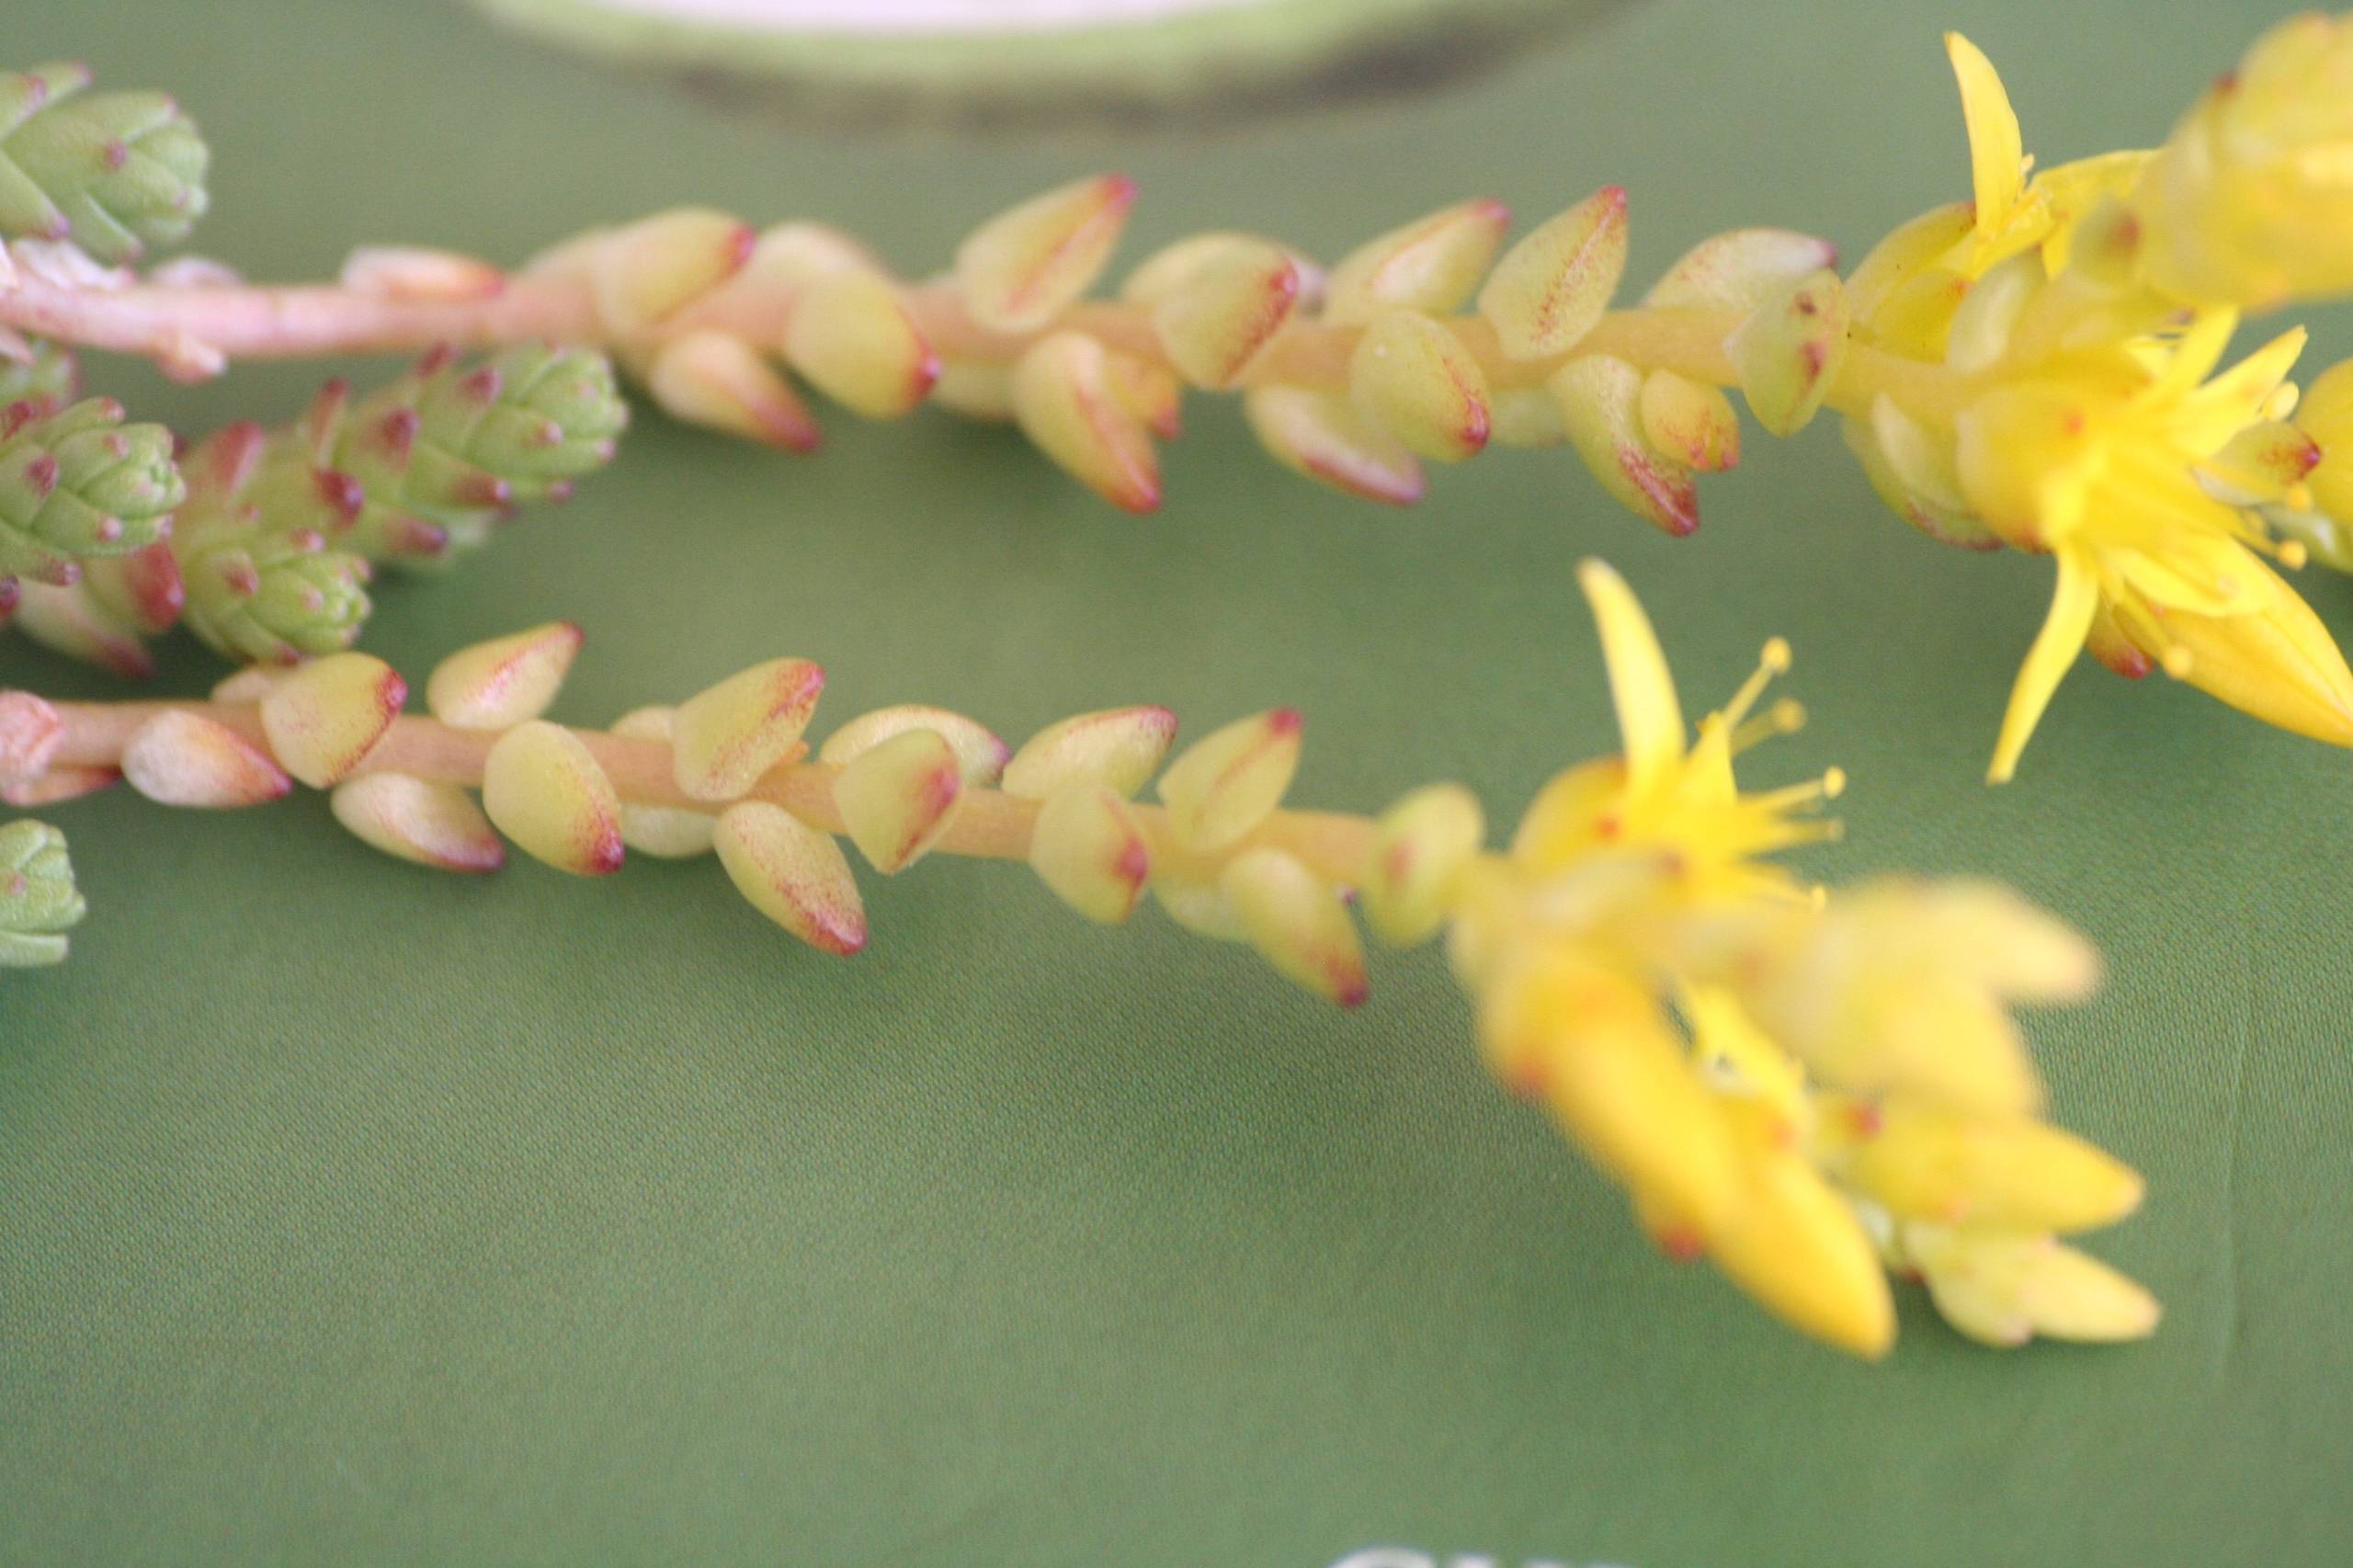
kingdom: Plantae
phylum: Tracheophyta
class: Magnoliopsida
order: Saxifragales
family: Crassulaceae
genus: Sedum
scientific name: Sedum acre
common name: Bidende stenurt
